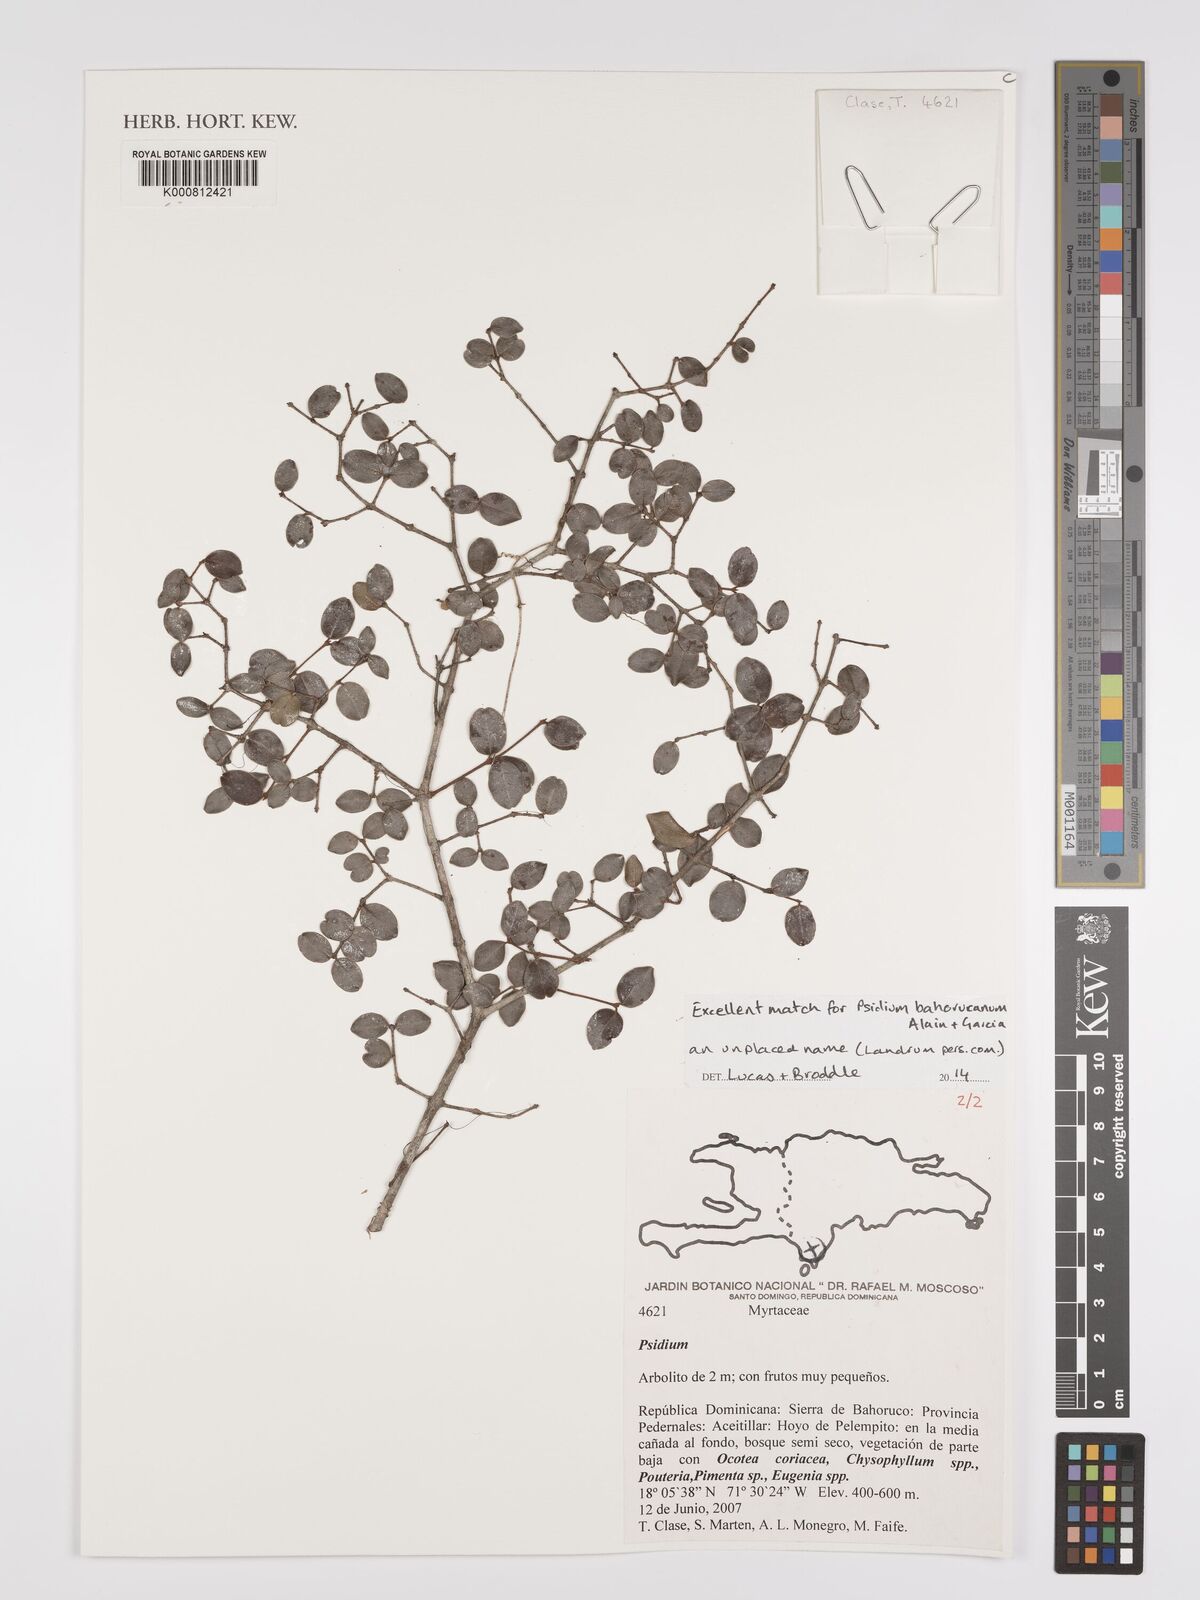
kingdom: Plantae
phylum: Tracheophyta
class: Magnoliopsida
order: Myrtales
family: Myrtaceae
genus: Psidium
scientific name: Psidium
